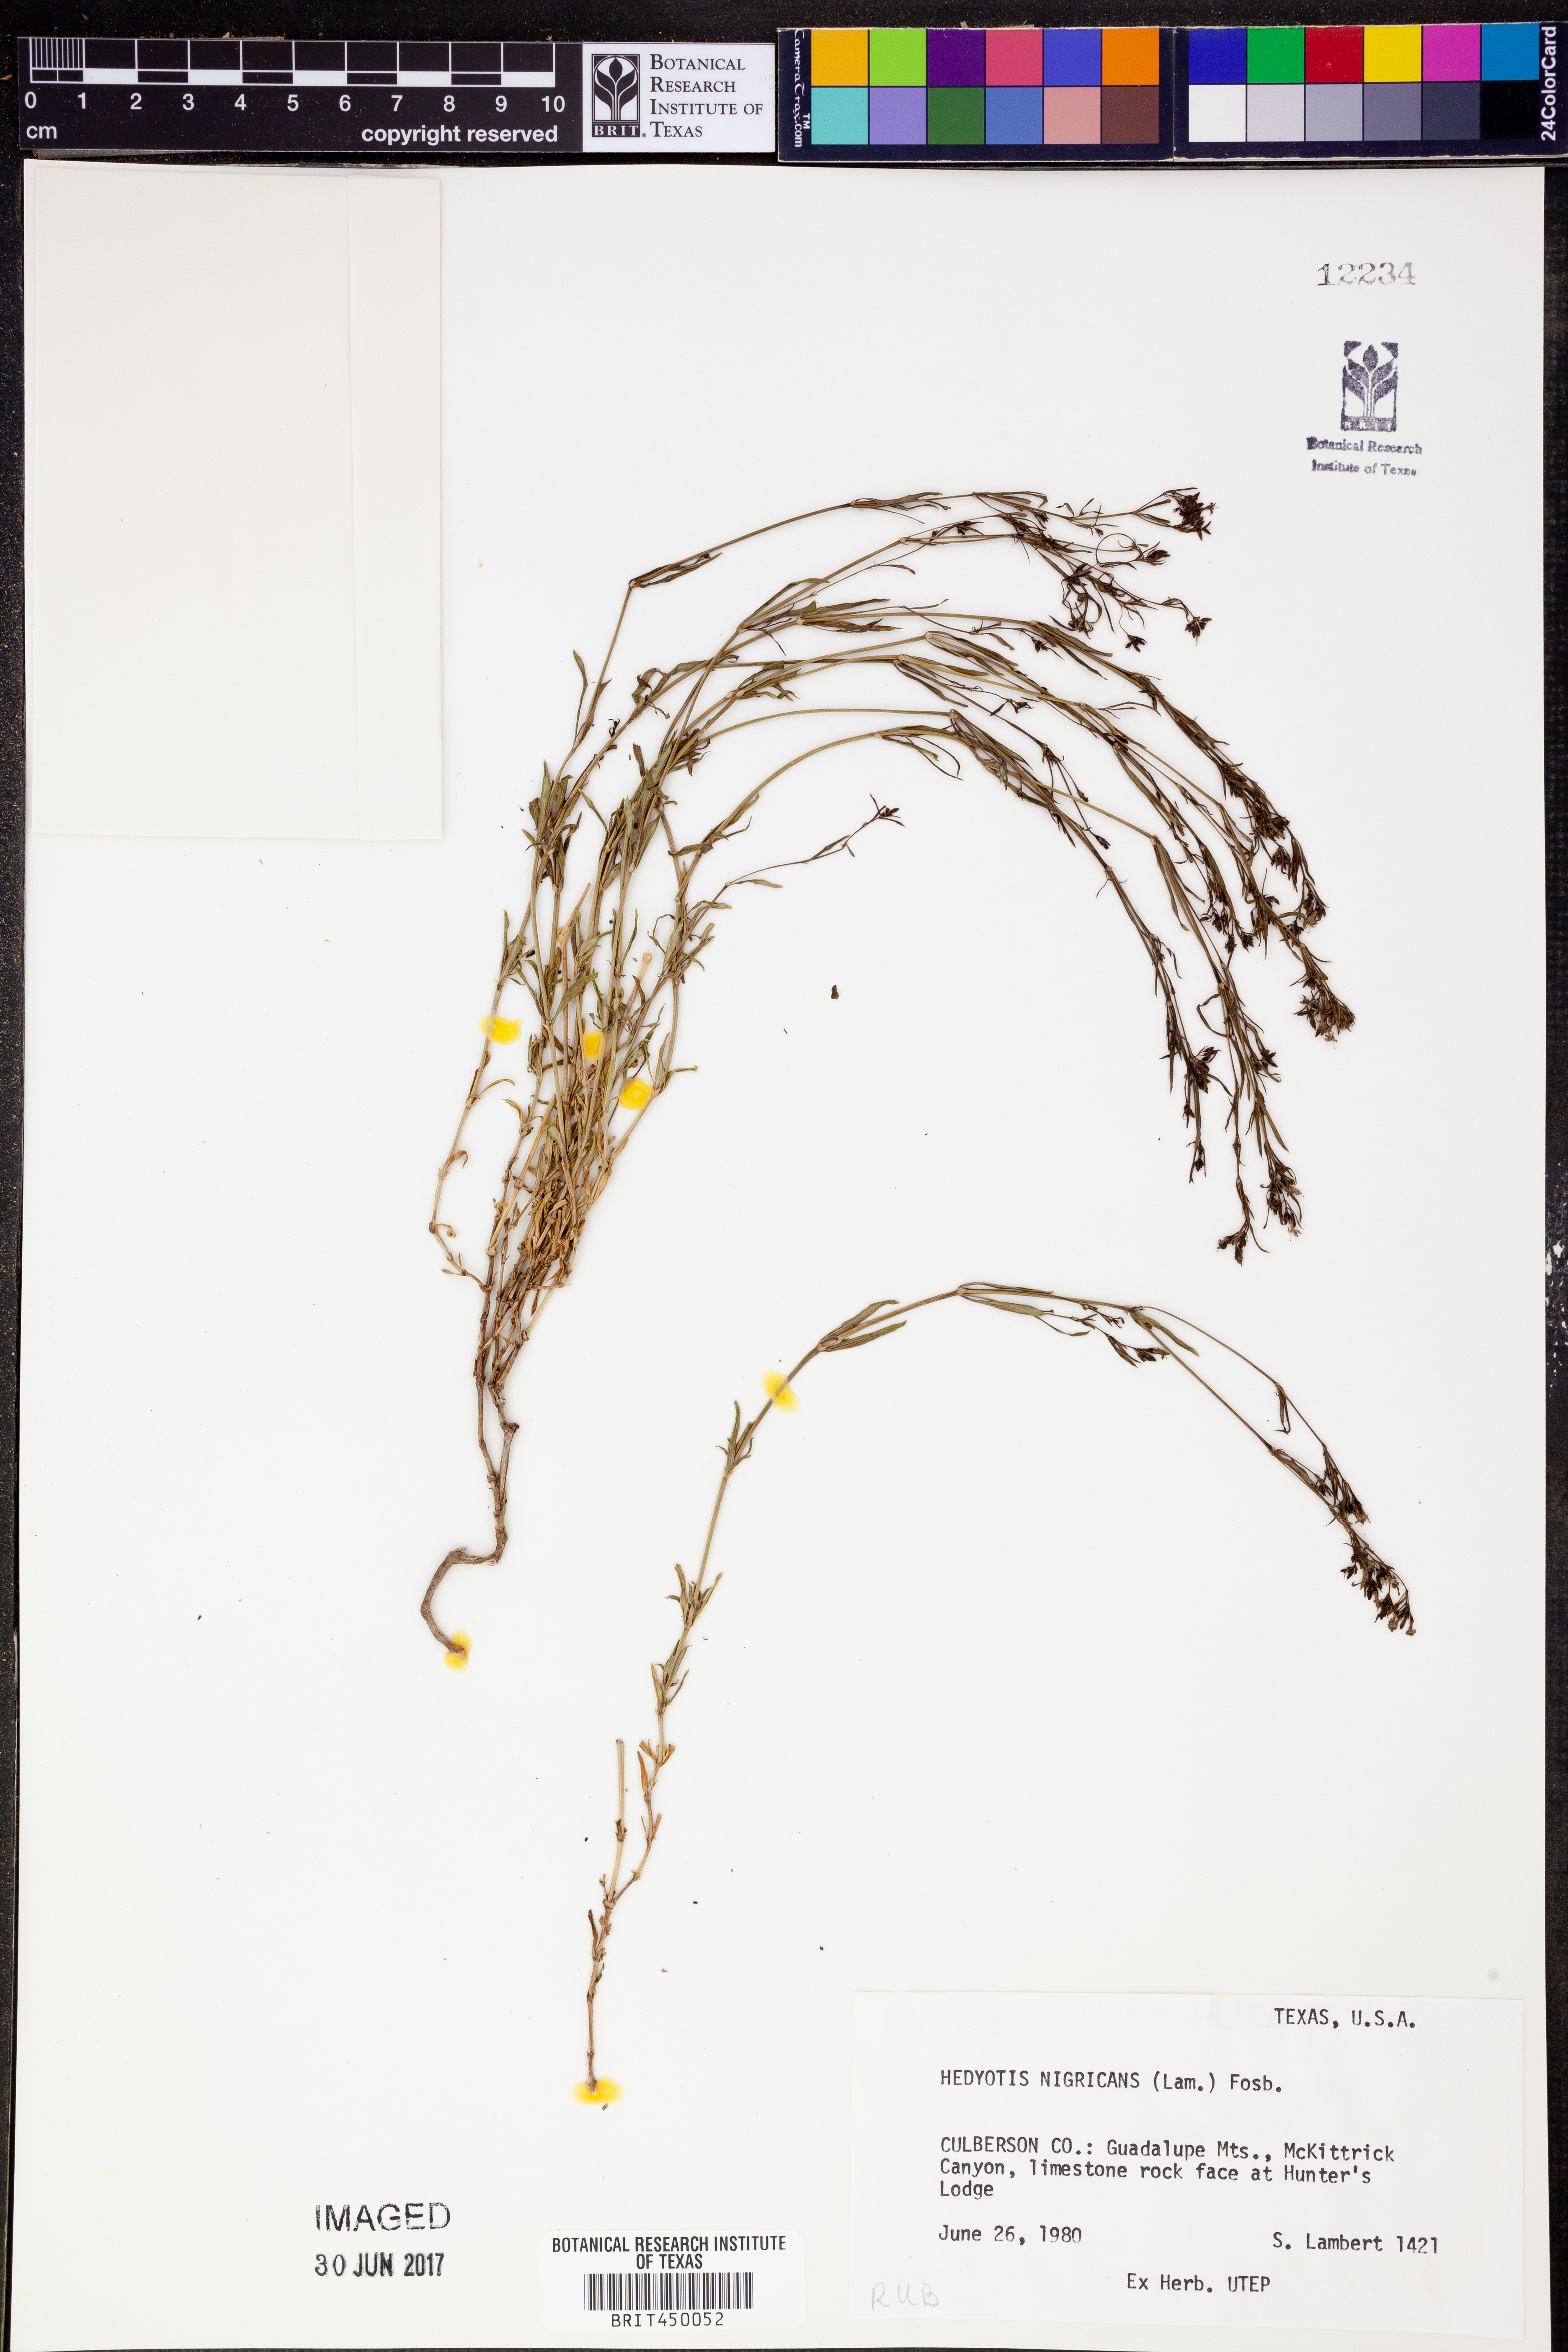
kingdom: Plantae
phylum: Tracheophyta
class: Magnoliopsida
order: Gentianales
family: Rubiaceae
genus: Stenaria
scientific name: Stenaria nigricans
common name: Diamondflowers
